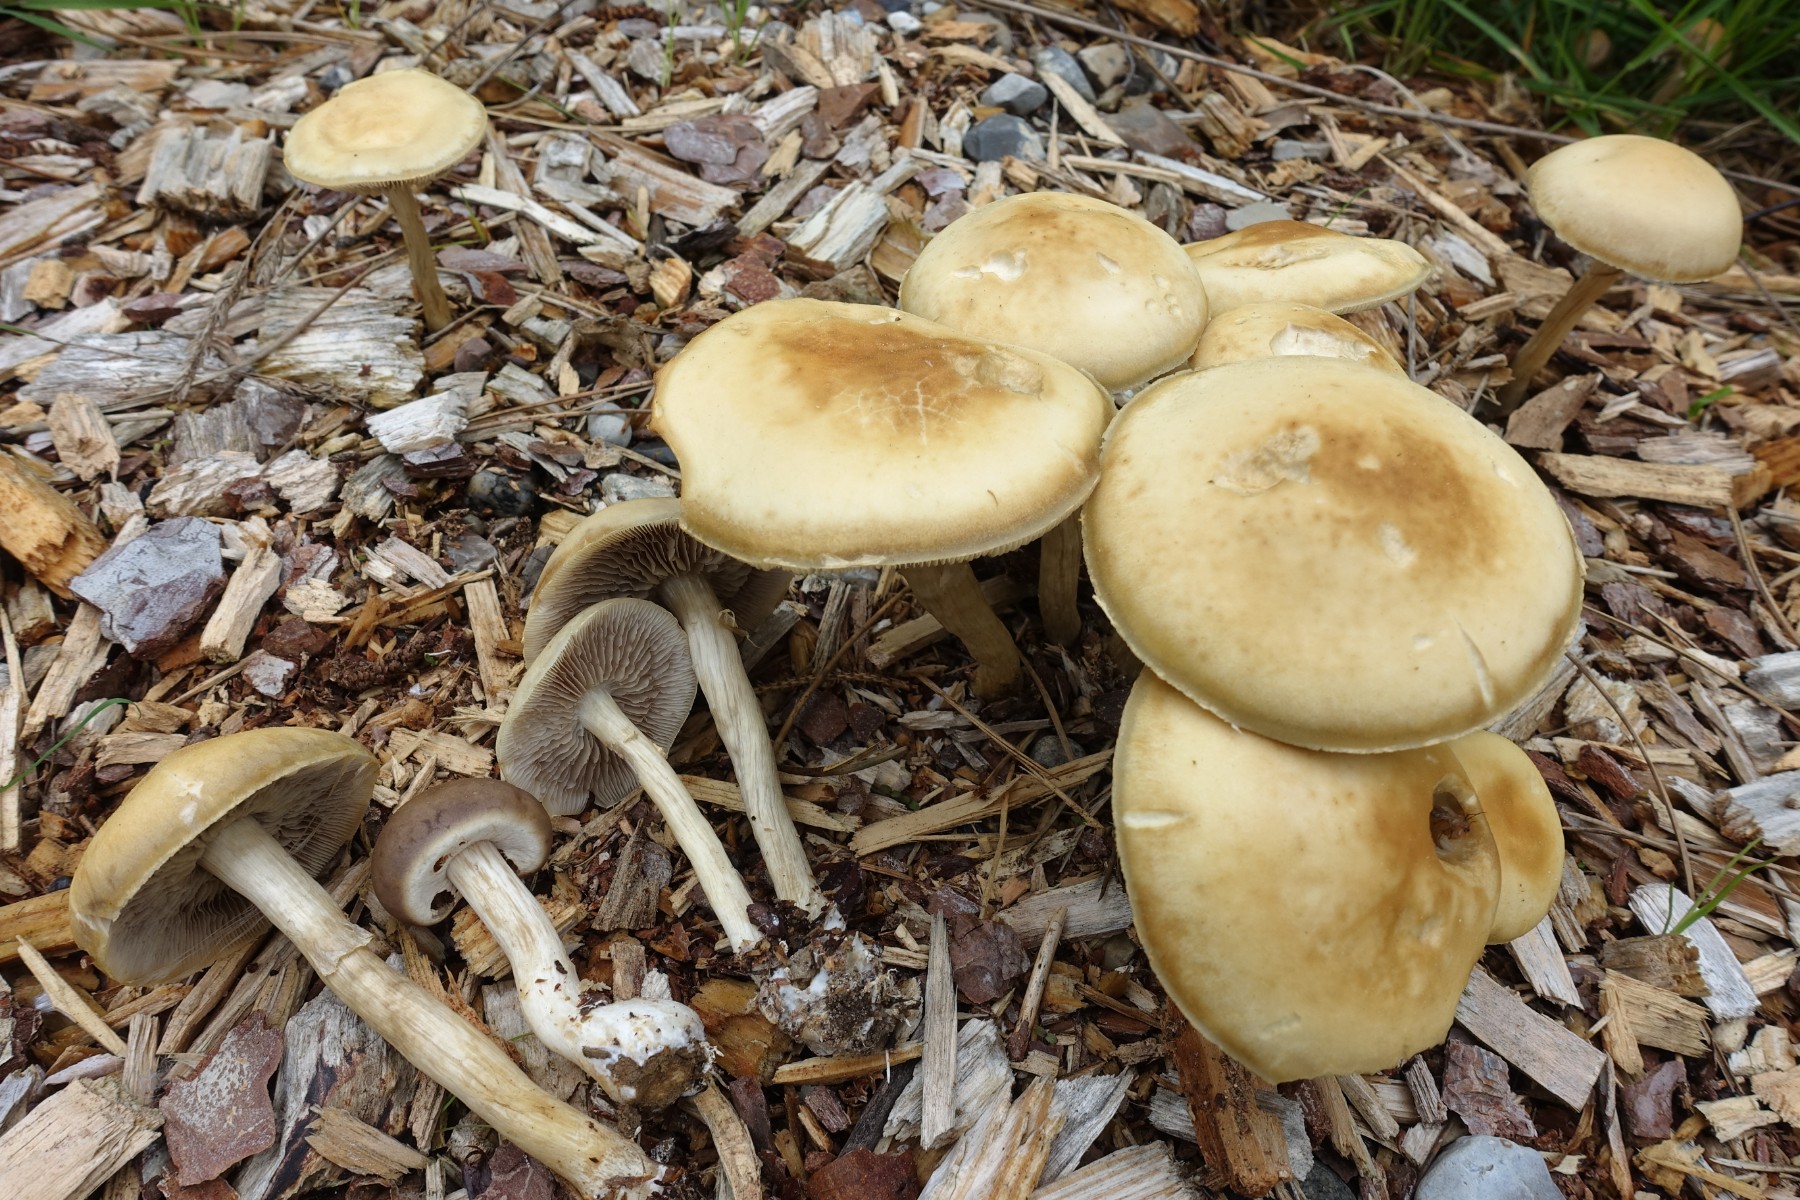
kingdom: Fungi
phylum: Basidiomycota
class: Agaricomycetes
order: Agaricales
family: Strophariaceae
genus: Agrocybe
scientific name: Agrocybe praecox
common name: tidlig agerhat
